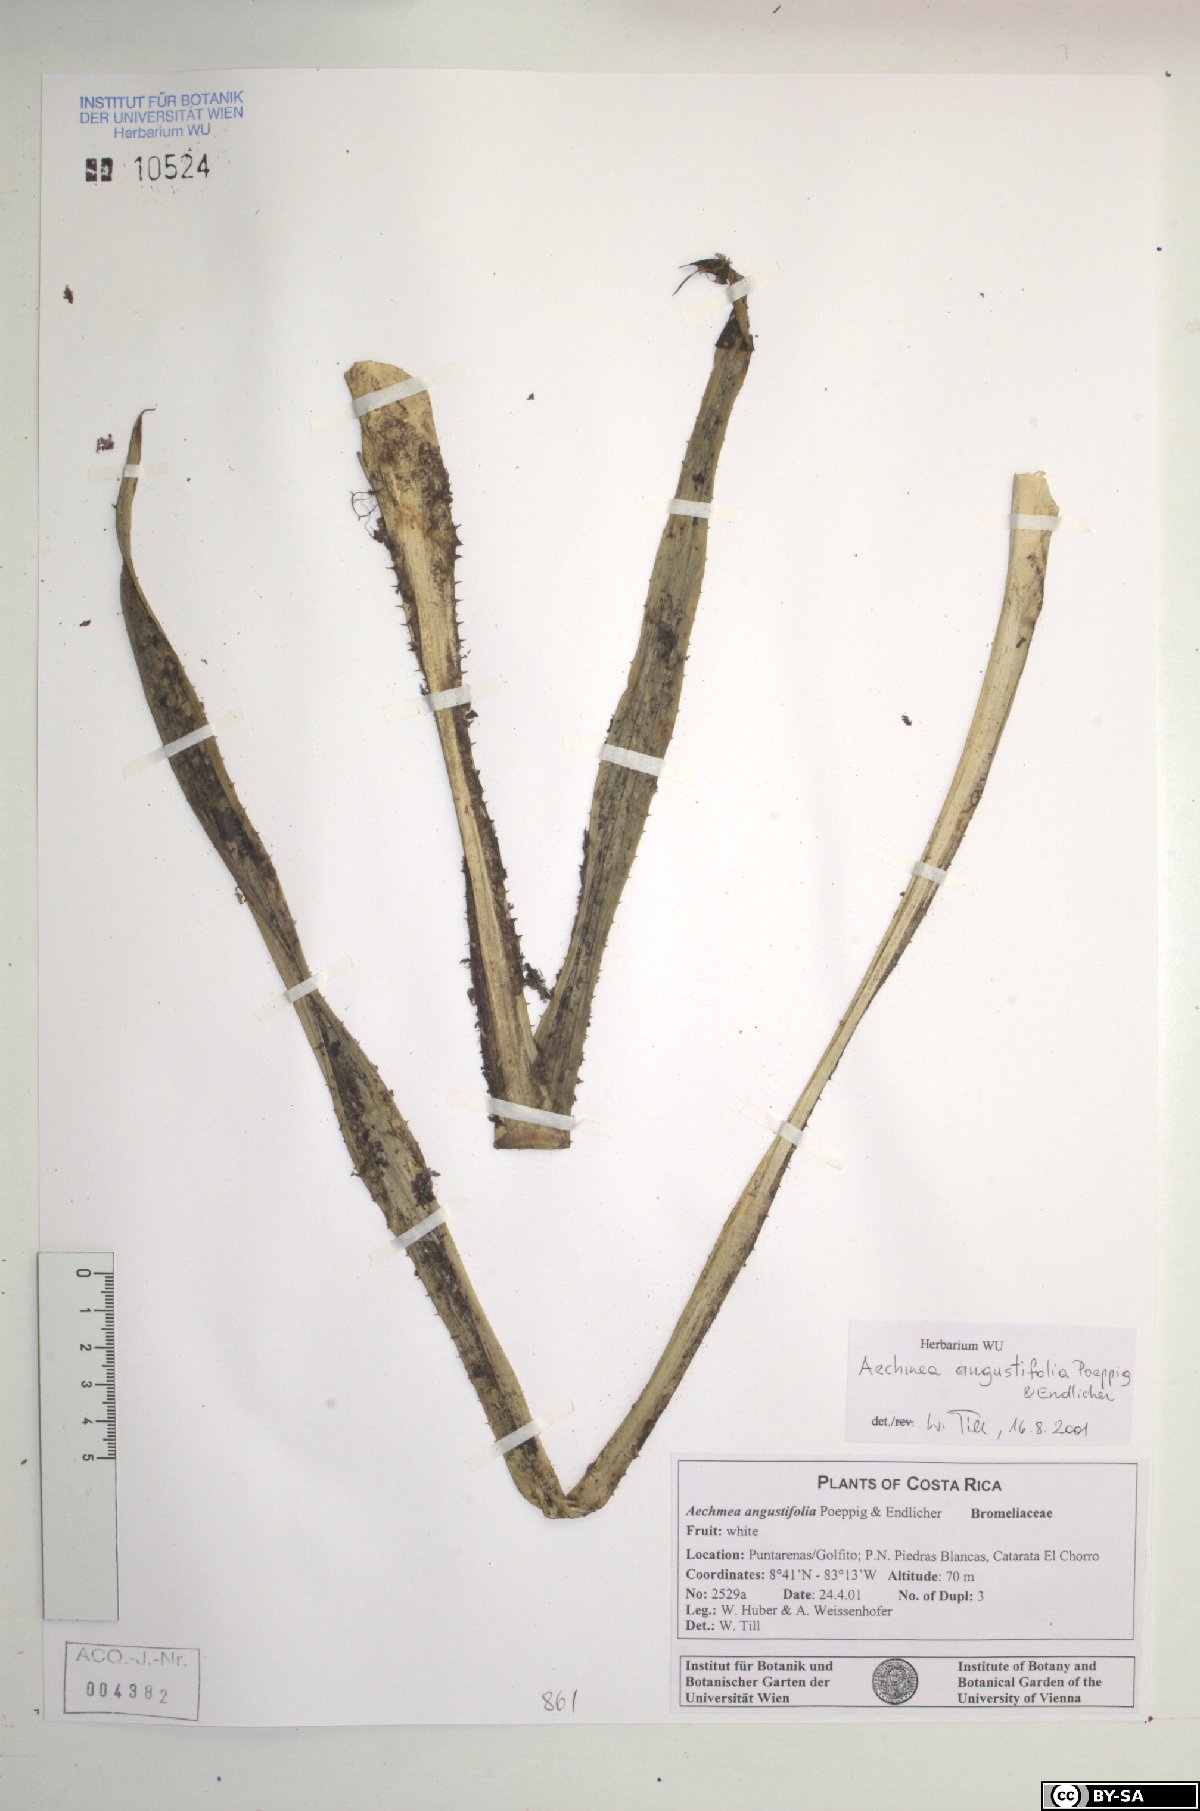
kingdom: Plantae
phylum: Tracheophyta
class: Liliopsida
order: Poales
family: Bromeliaceae
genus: Aechmea
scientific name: Aechmea angustifolia
